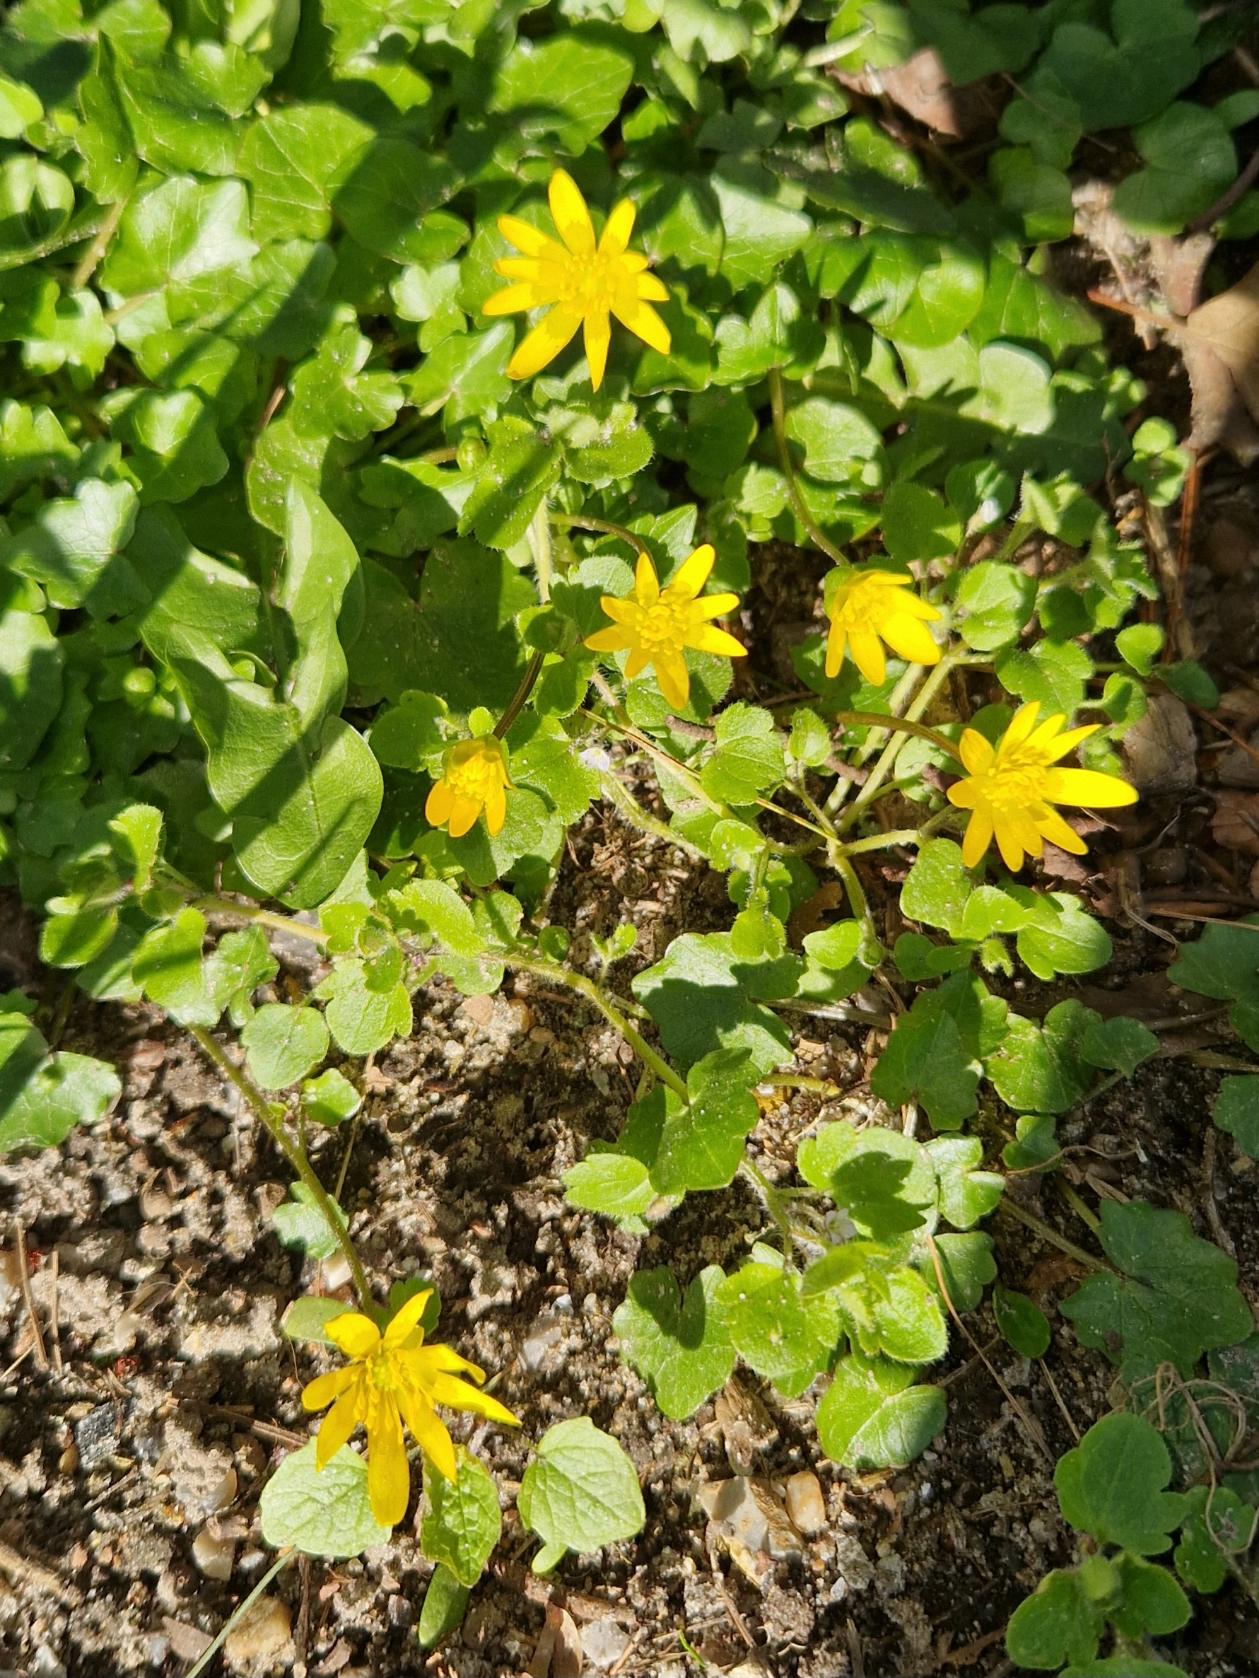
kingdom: Plantae
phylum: Tracheophyta
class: Magnoliopsida
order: Ranunculales
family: Ranunculaceae
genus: Ficaria
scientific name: Ficaria verna
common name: Vorterod
